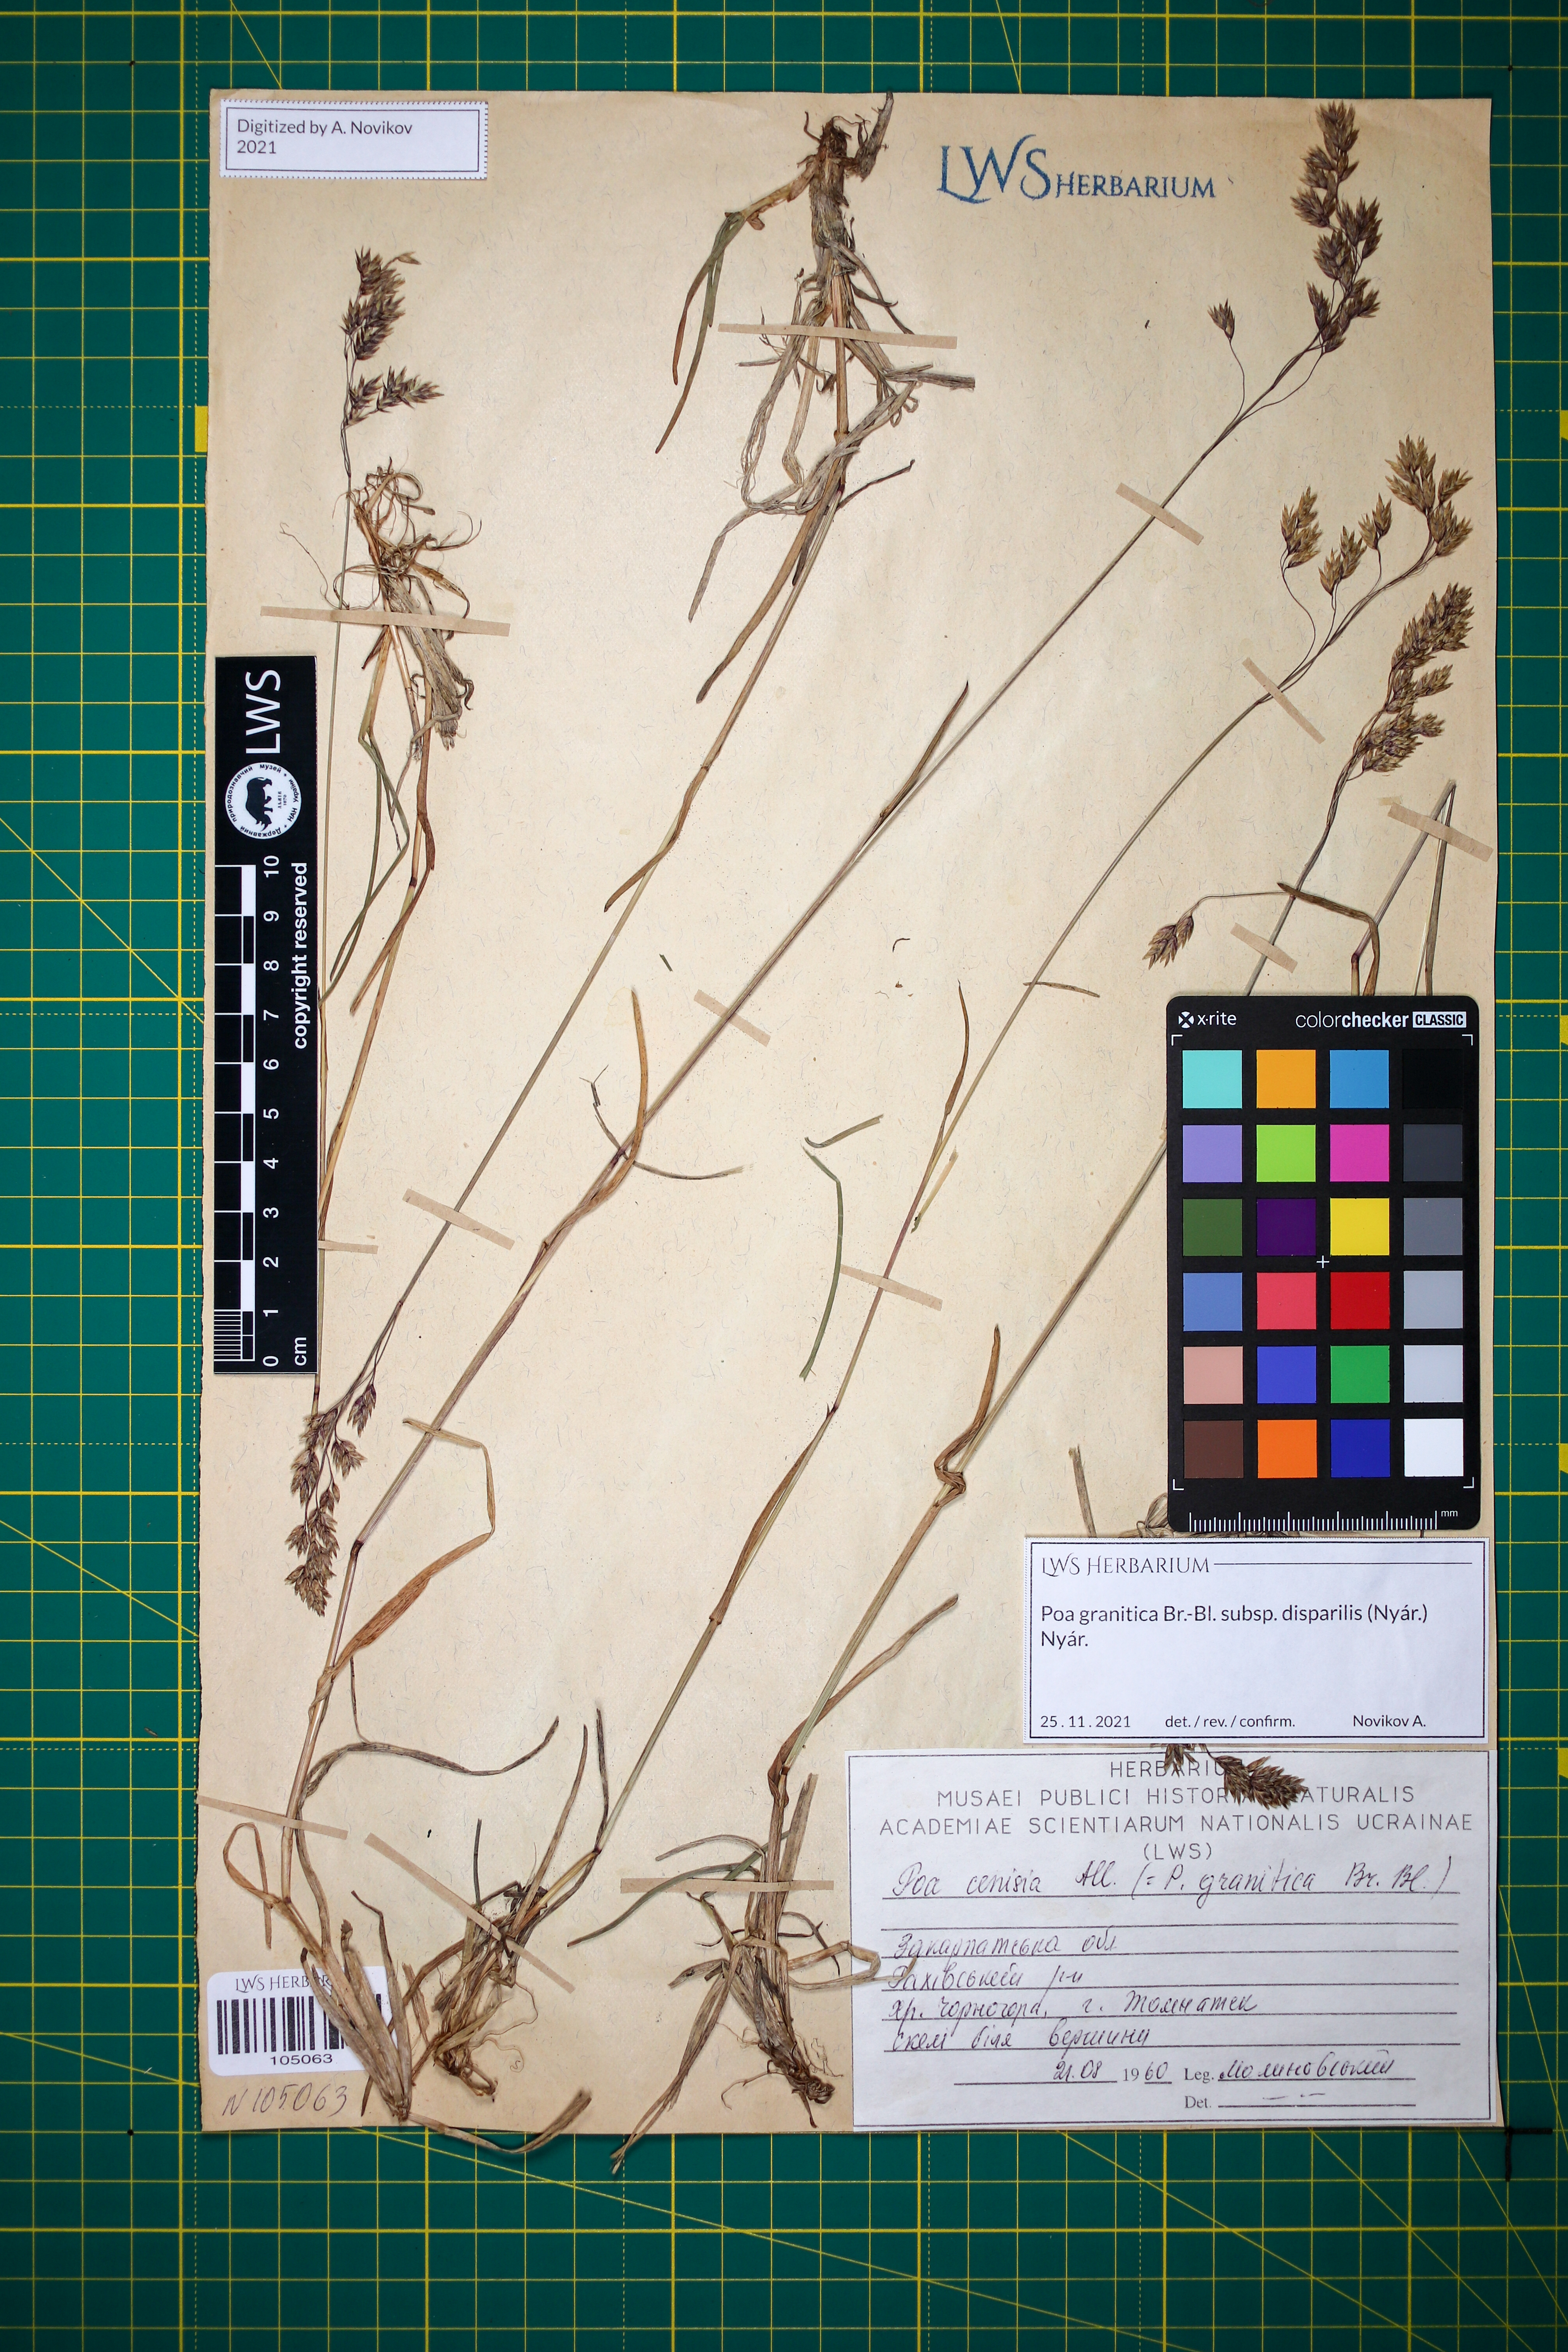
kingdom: Plantae
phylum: Tracheophyta
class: Liliopsida
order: Poales
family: Poaceae
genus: Poa
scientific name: Poa granitica
